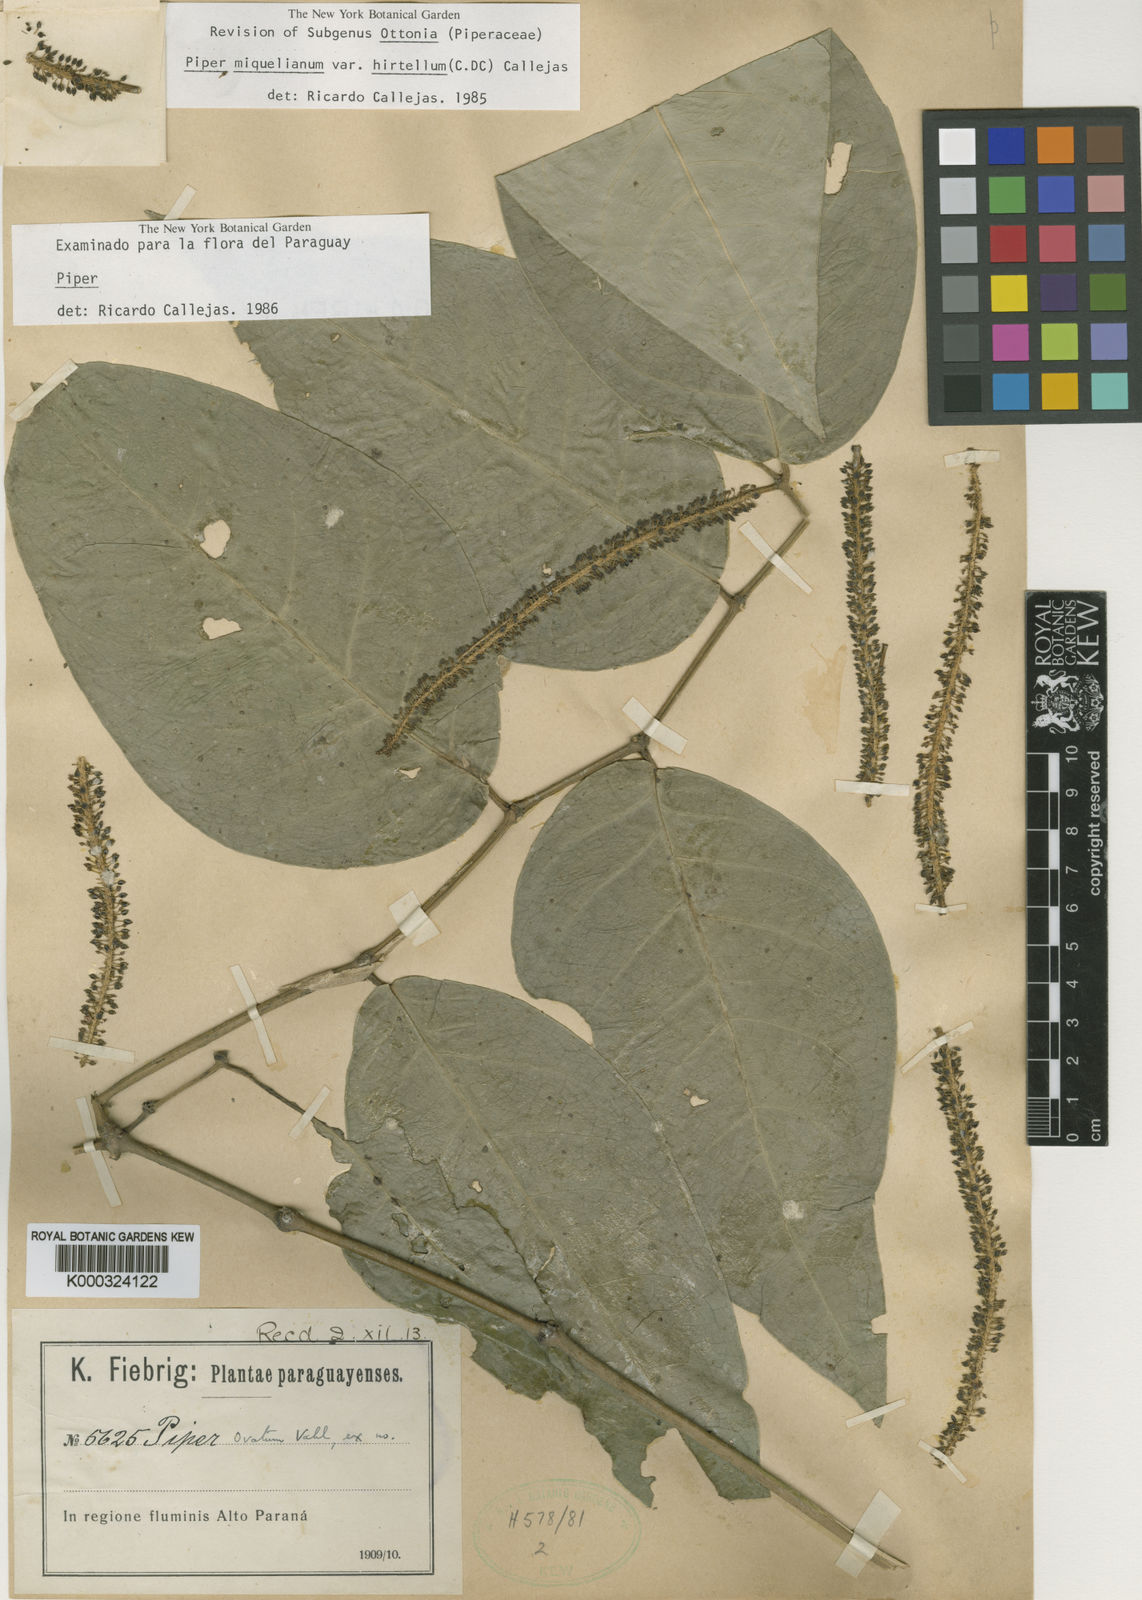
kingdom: Plantae
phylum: Tracheophyta
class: Magnoliopsida
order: Piperales
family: Piperaceae
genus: Piper
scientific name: Piper miquelianum
